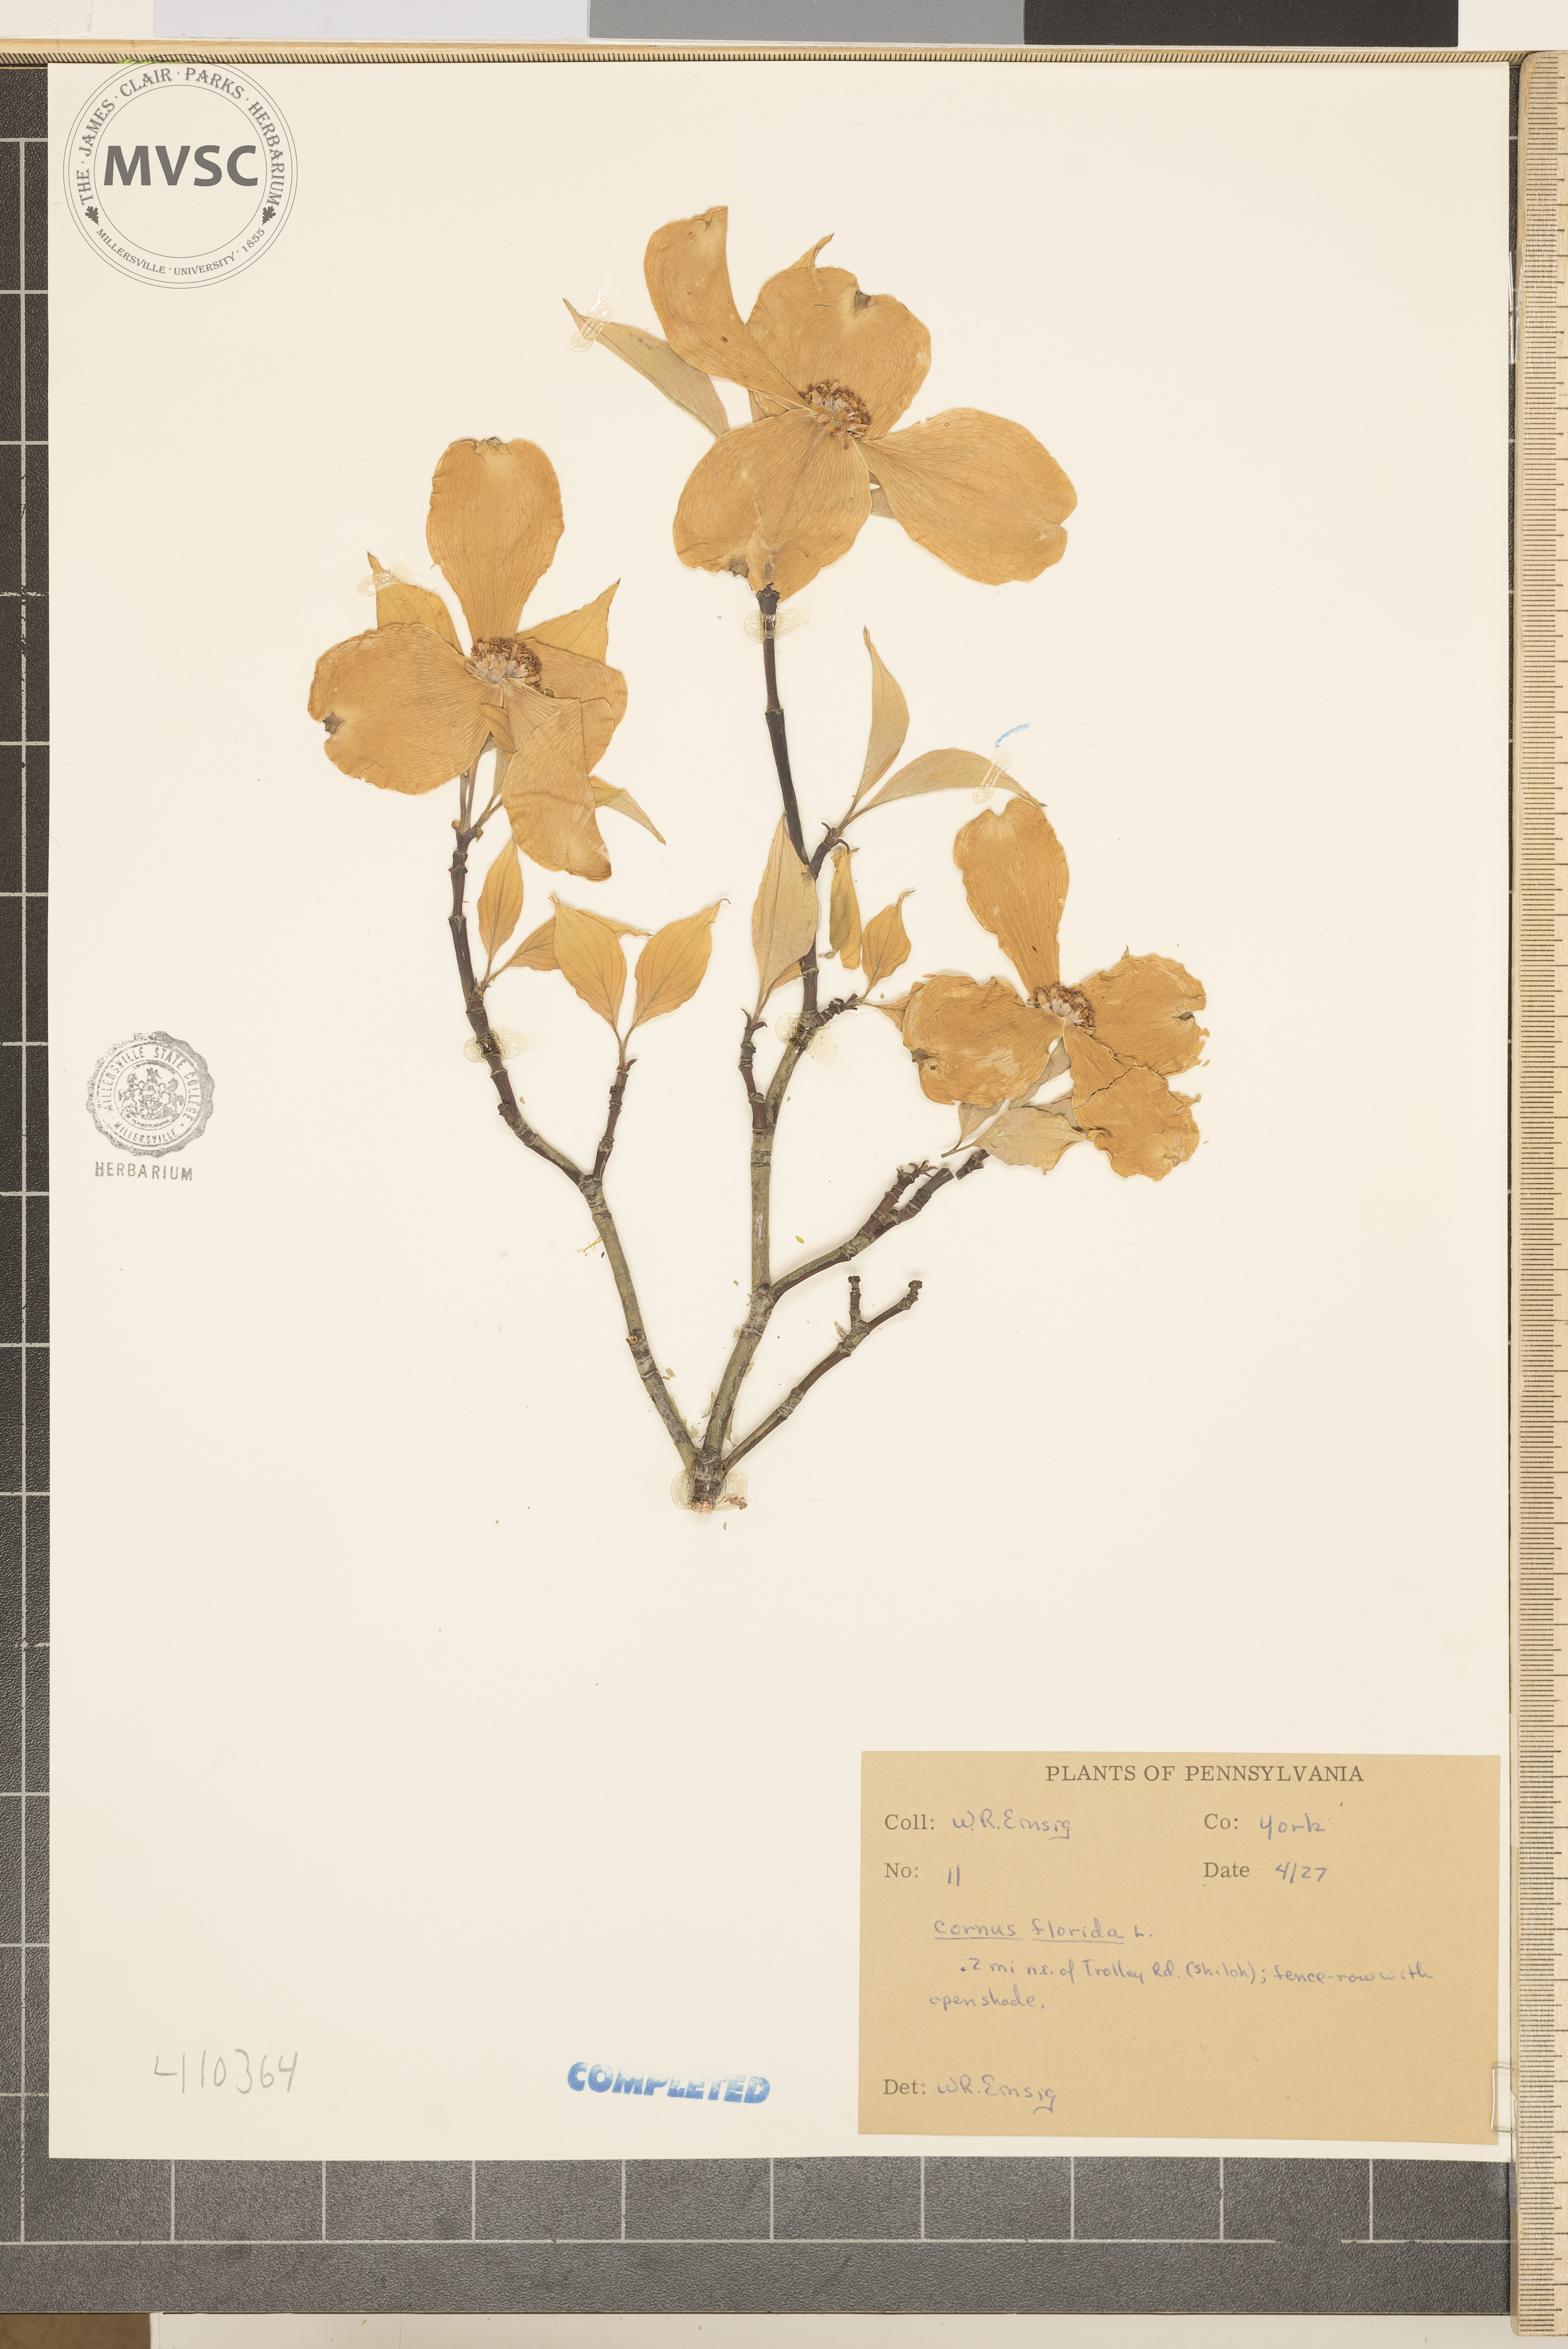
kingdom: Plantae
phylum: Tracheophyta
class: Magnoliopsida
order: Cornales
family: Cornaceae
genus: Cornus
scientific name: Cornus florida
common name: Flowering dogwood
